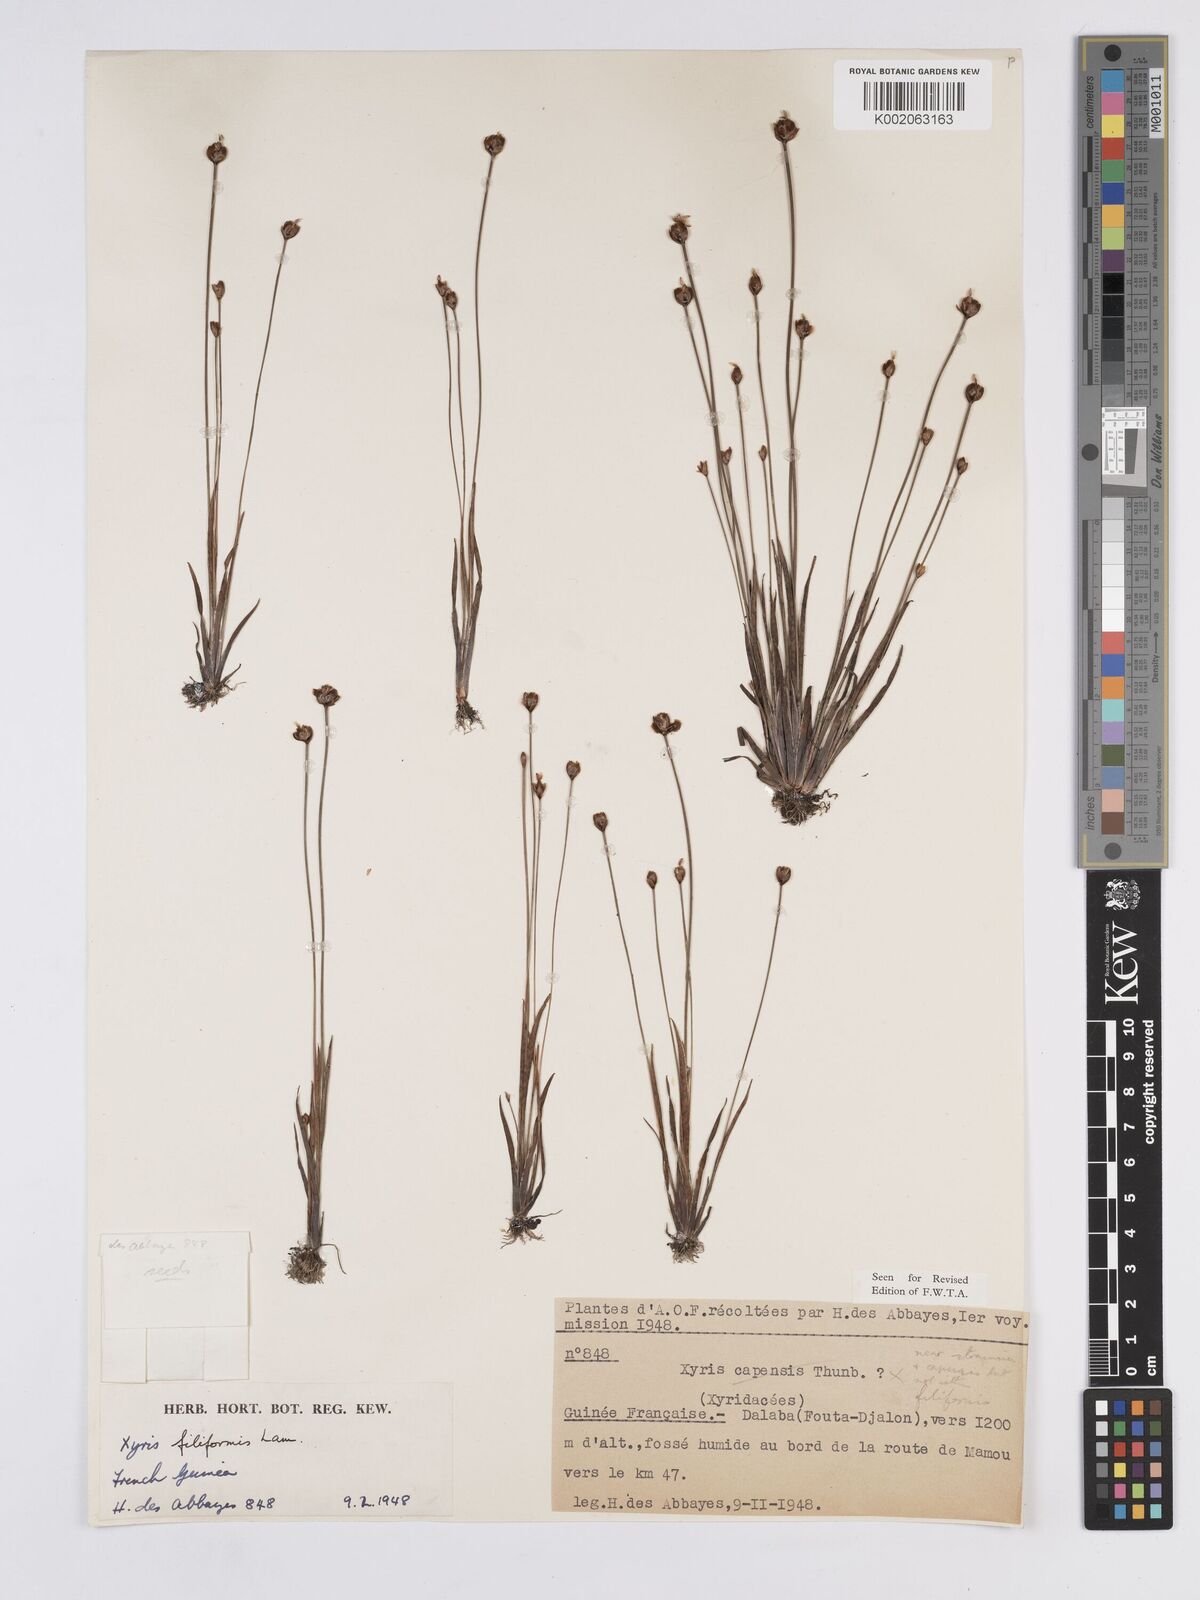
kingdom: Plantae
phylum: Tracheophyta
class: Liliopsida
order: Poales
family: Xyridaceae
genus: Xyris
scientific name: Xyris filiformis
